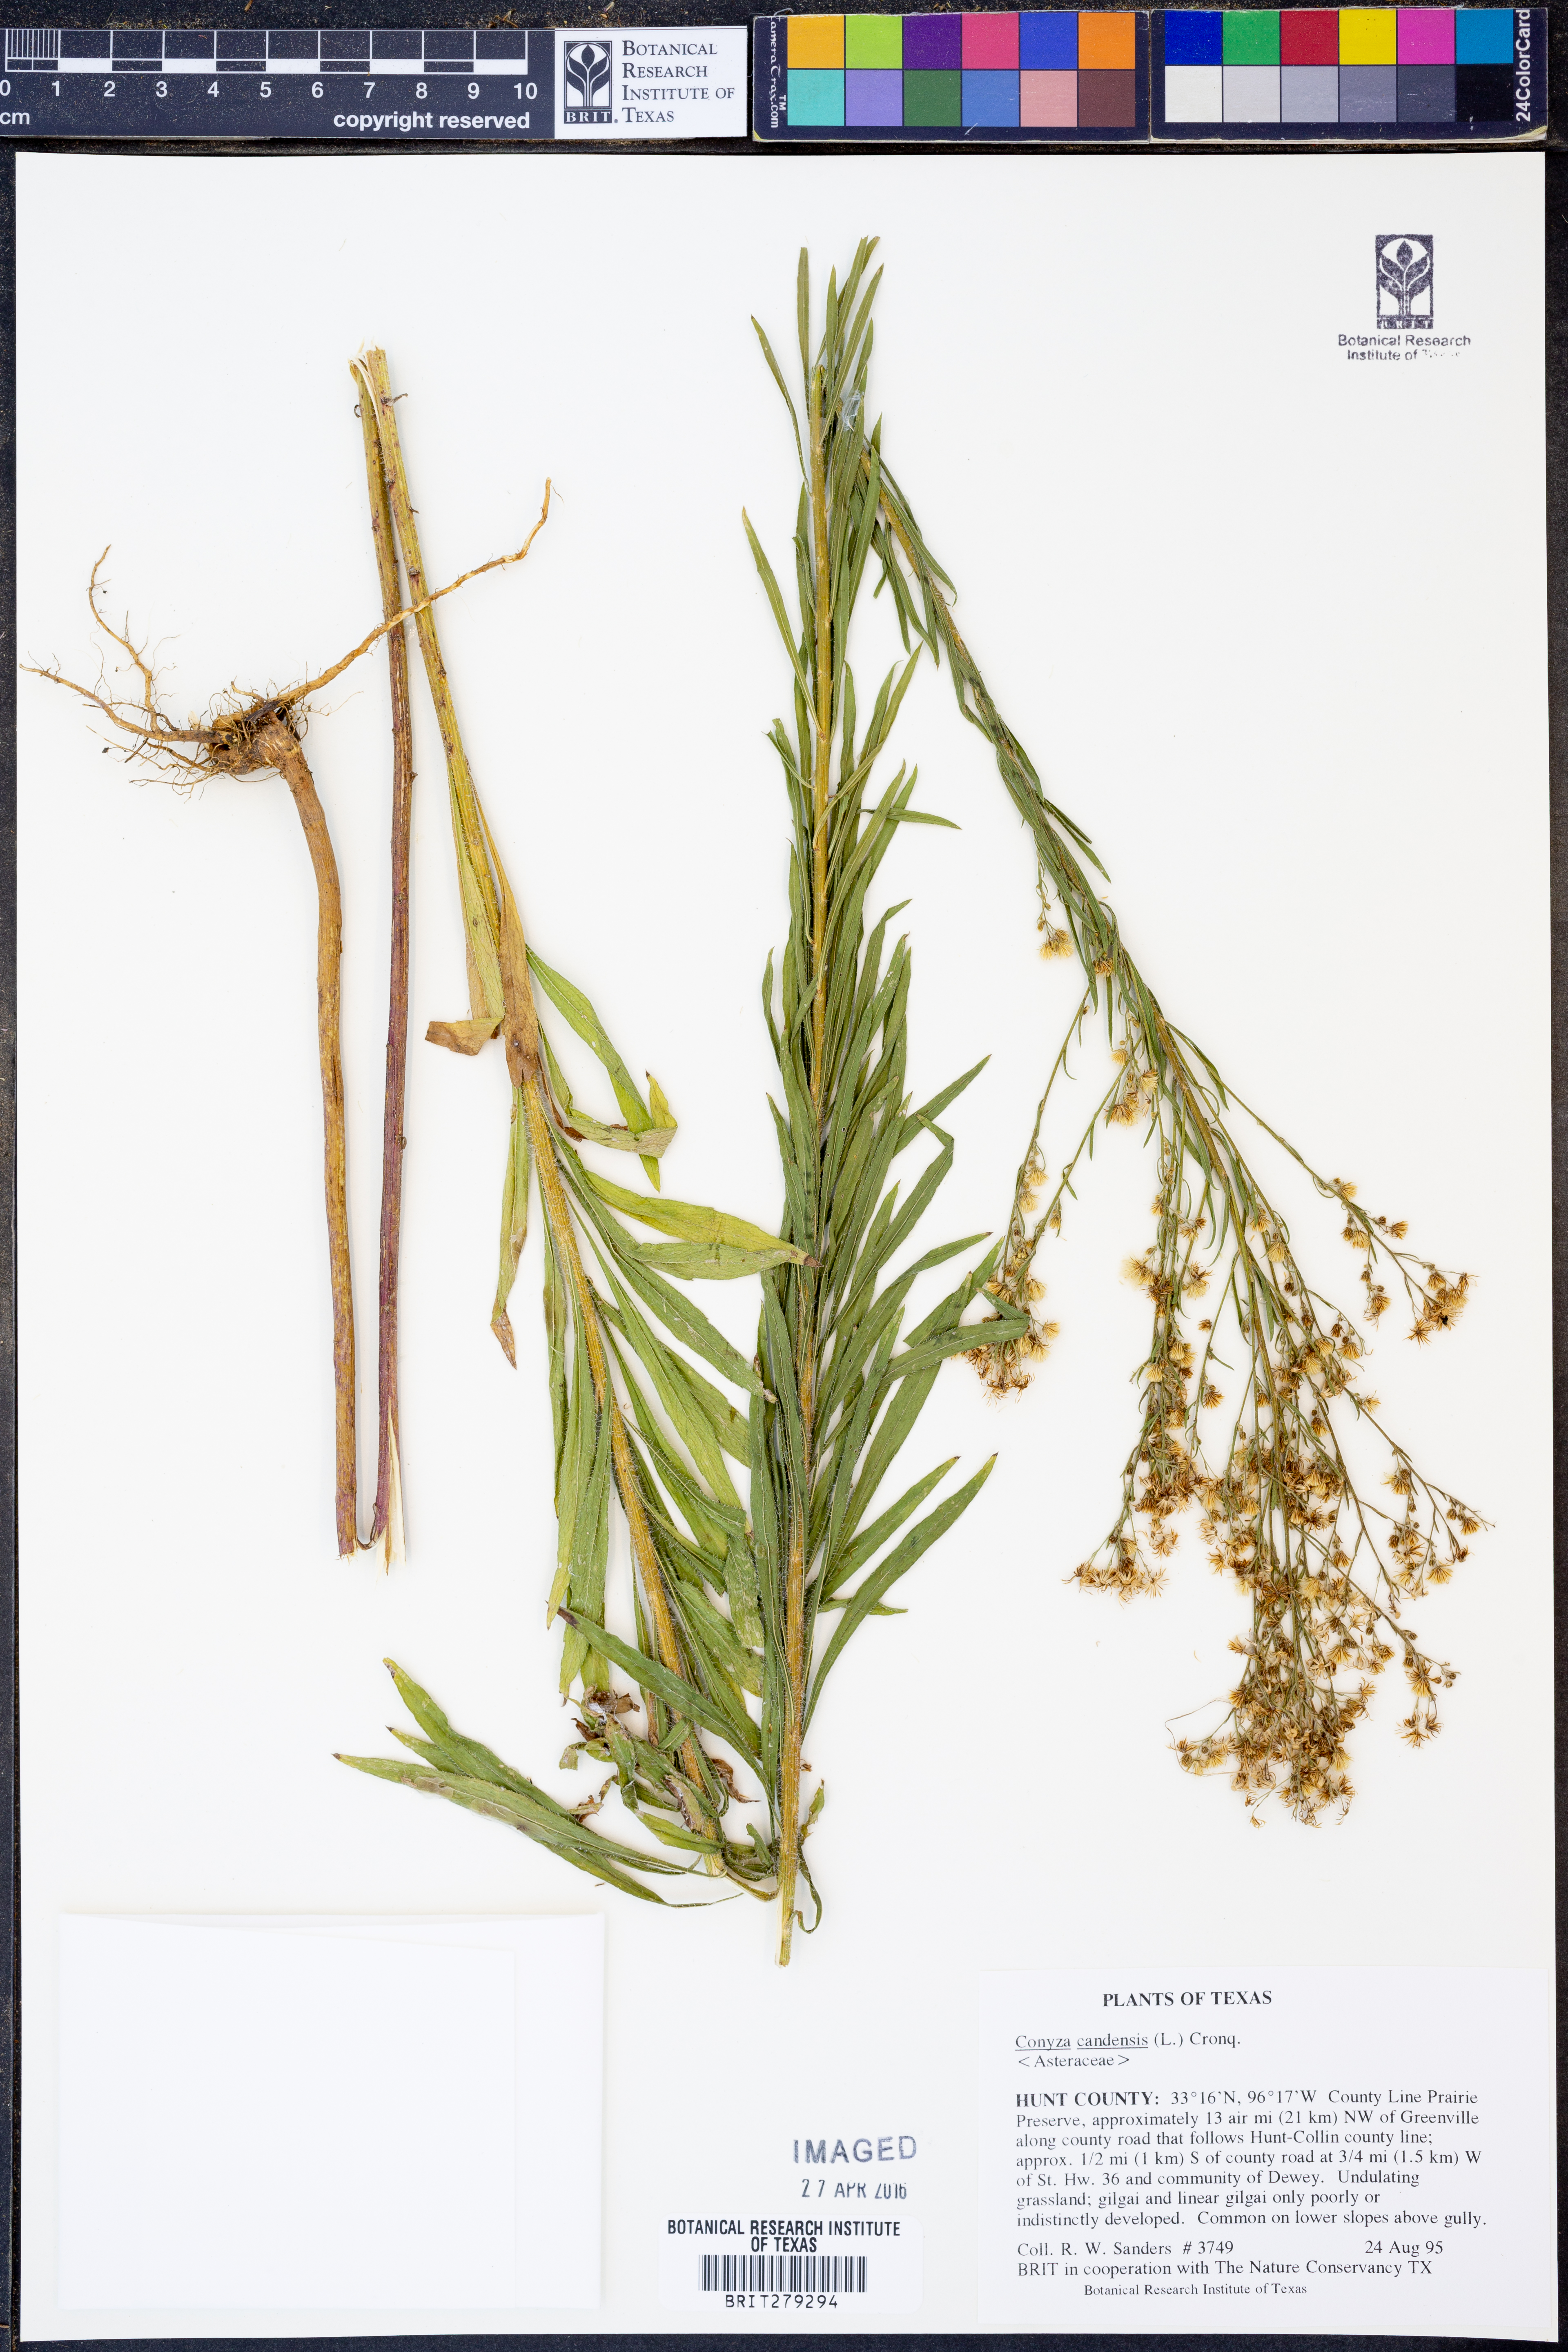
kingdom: Plantae
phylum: Tracheophyta
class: Magnoliopsida
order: Asterales
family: Asteraceae
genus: Erigeron
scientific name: Erigeron canadensis
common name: Canadian fleabane
